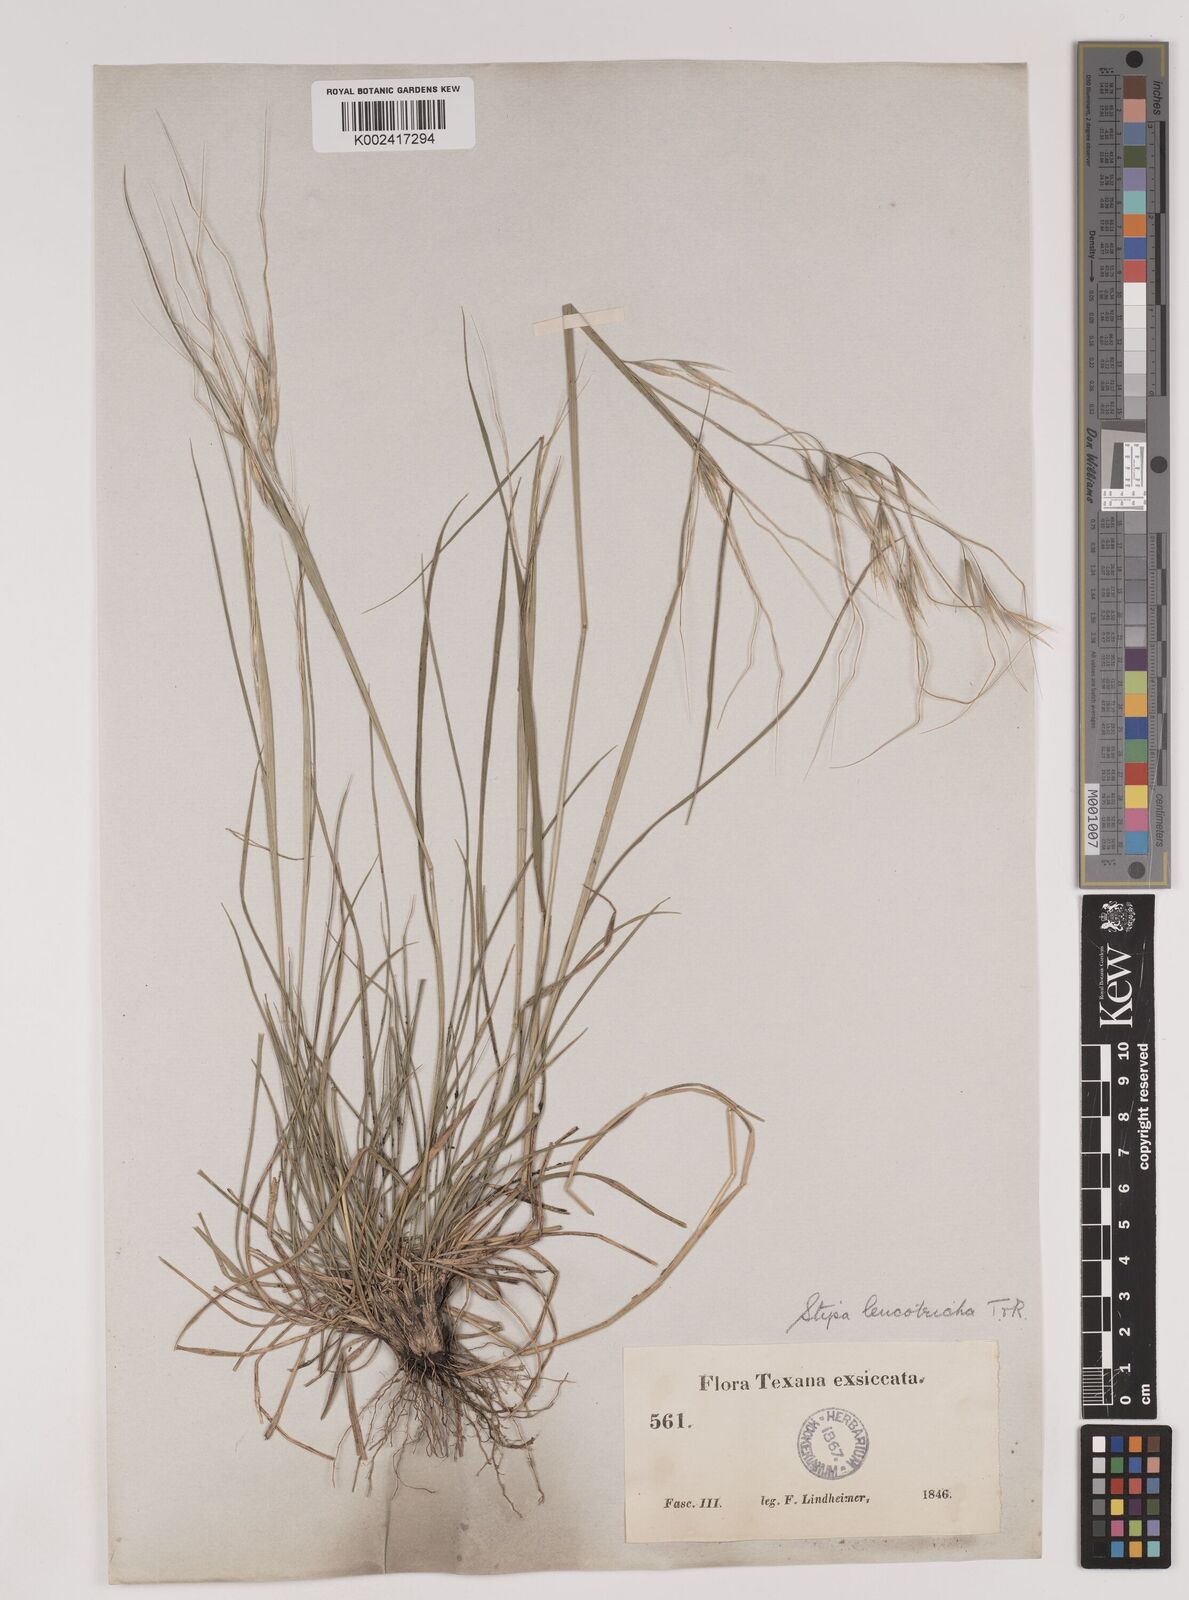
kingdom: Plantae
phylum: Tracheophyta
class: Liliopsida
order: Poales
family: Poaceae
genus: Nassella
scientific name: Nassella leucotricha
